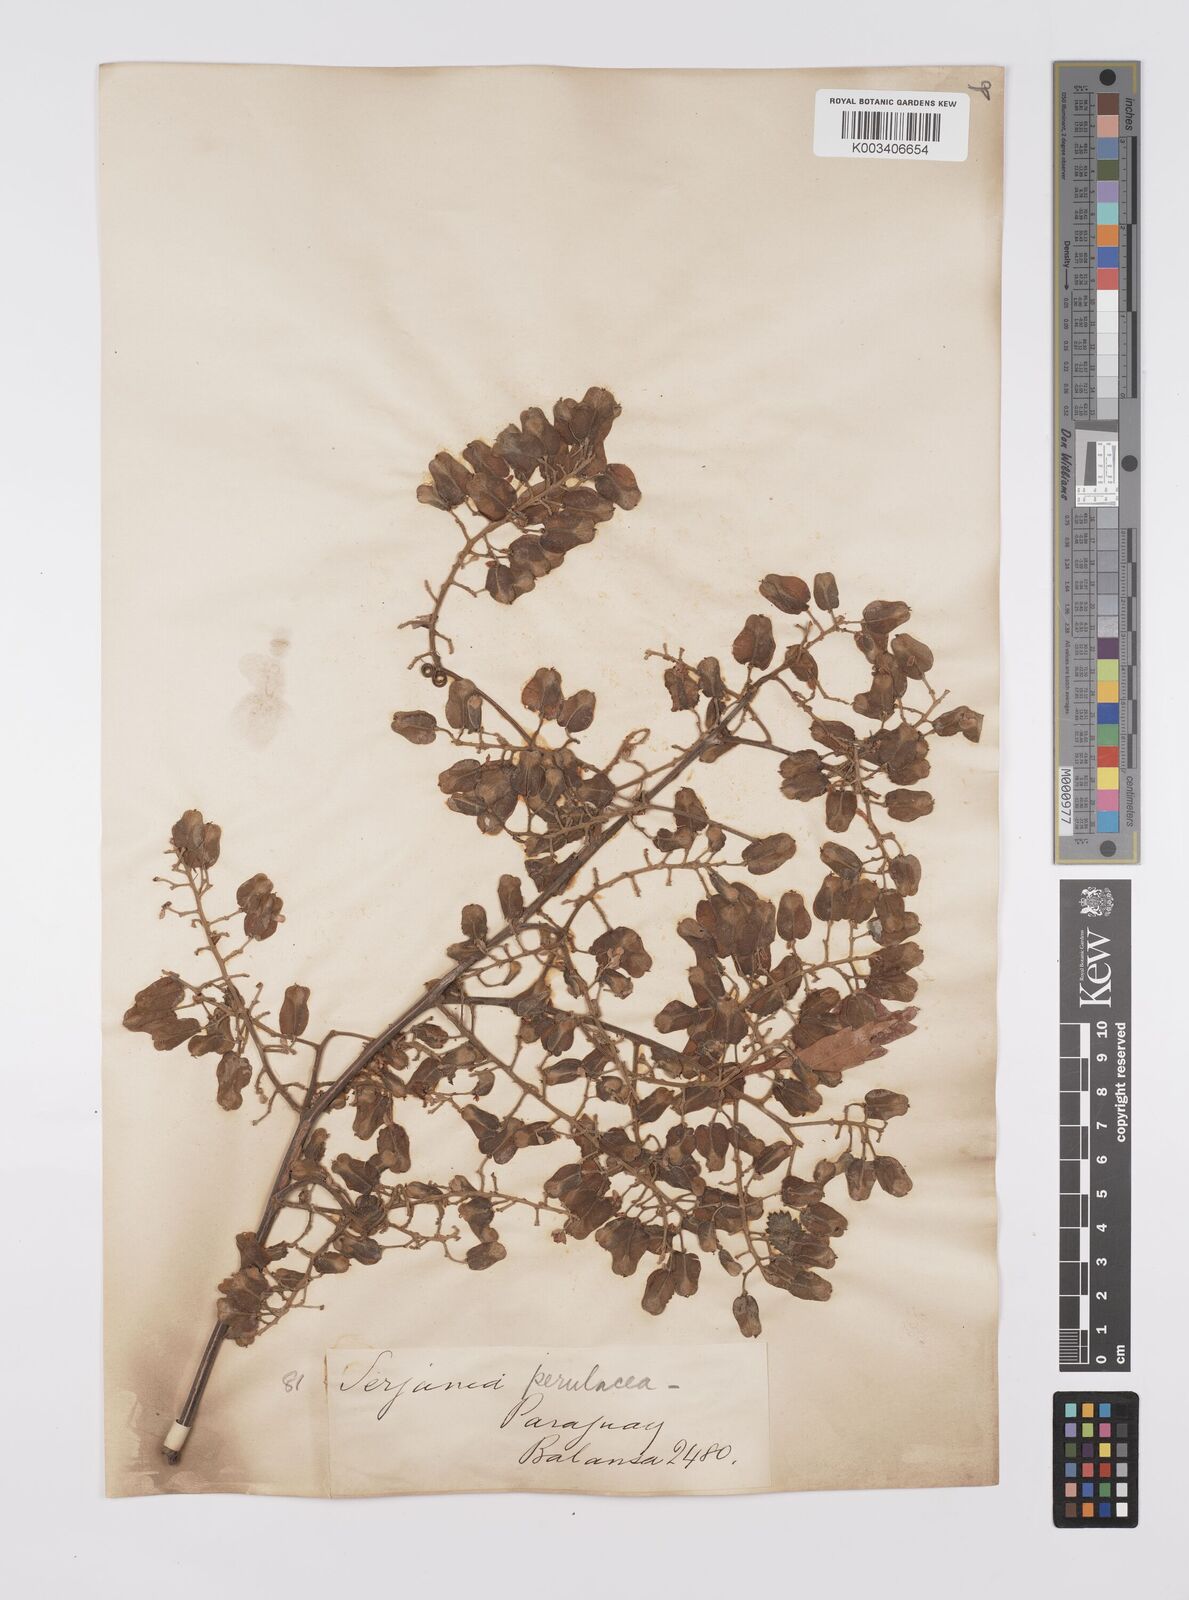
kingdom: Plantae
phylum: Tracheophyta
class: Magnoliopsida
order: Sapindales
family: Sapindaceae
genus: Serjania
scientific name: Serjania perulacea
